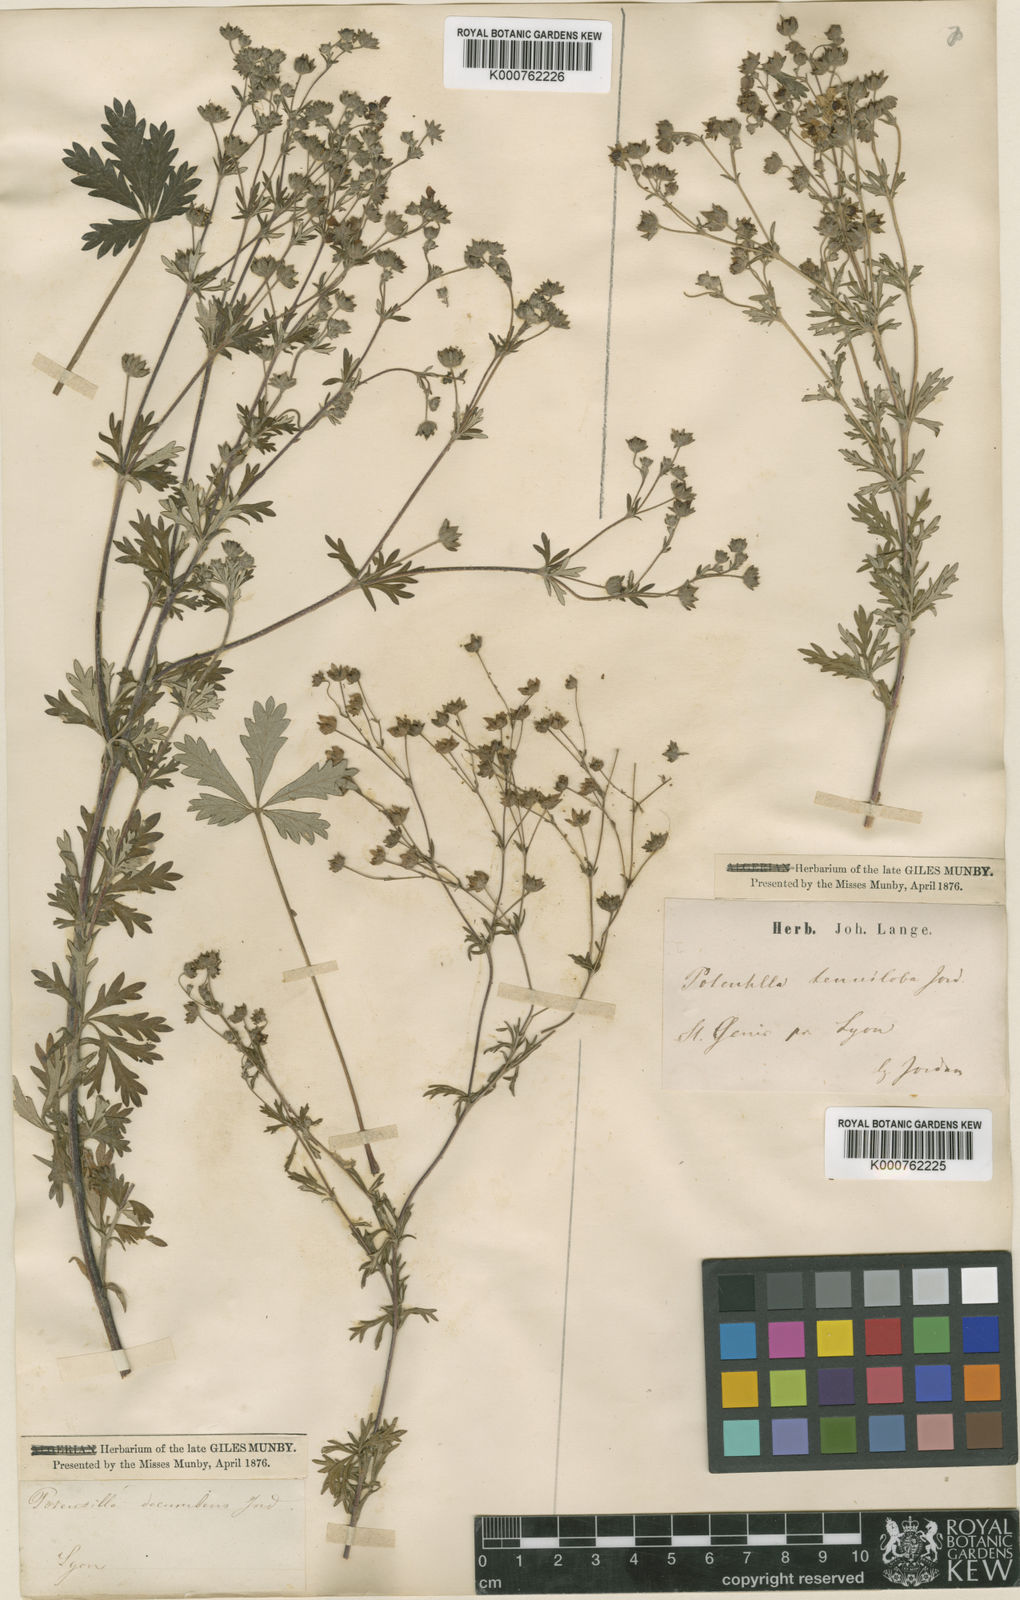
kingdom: Plantae
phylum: Tracheophyta
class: Magnoliopsida
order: Rosales
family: Rosaceae
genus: Potentilla
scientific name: Potentilla argentea
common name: Hoary cinquefoil
